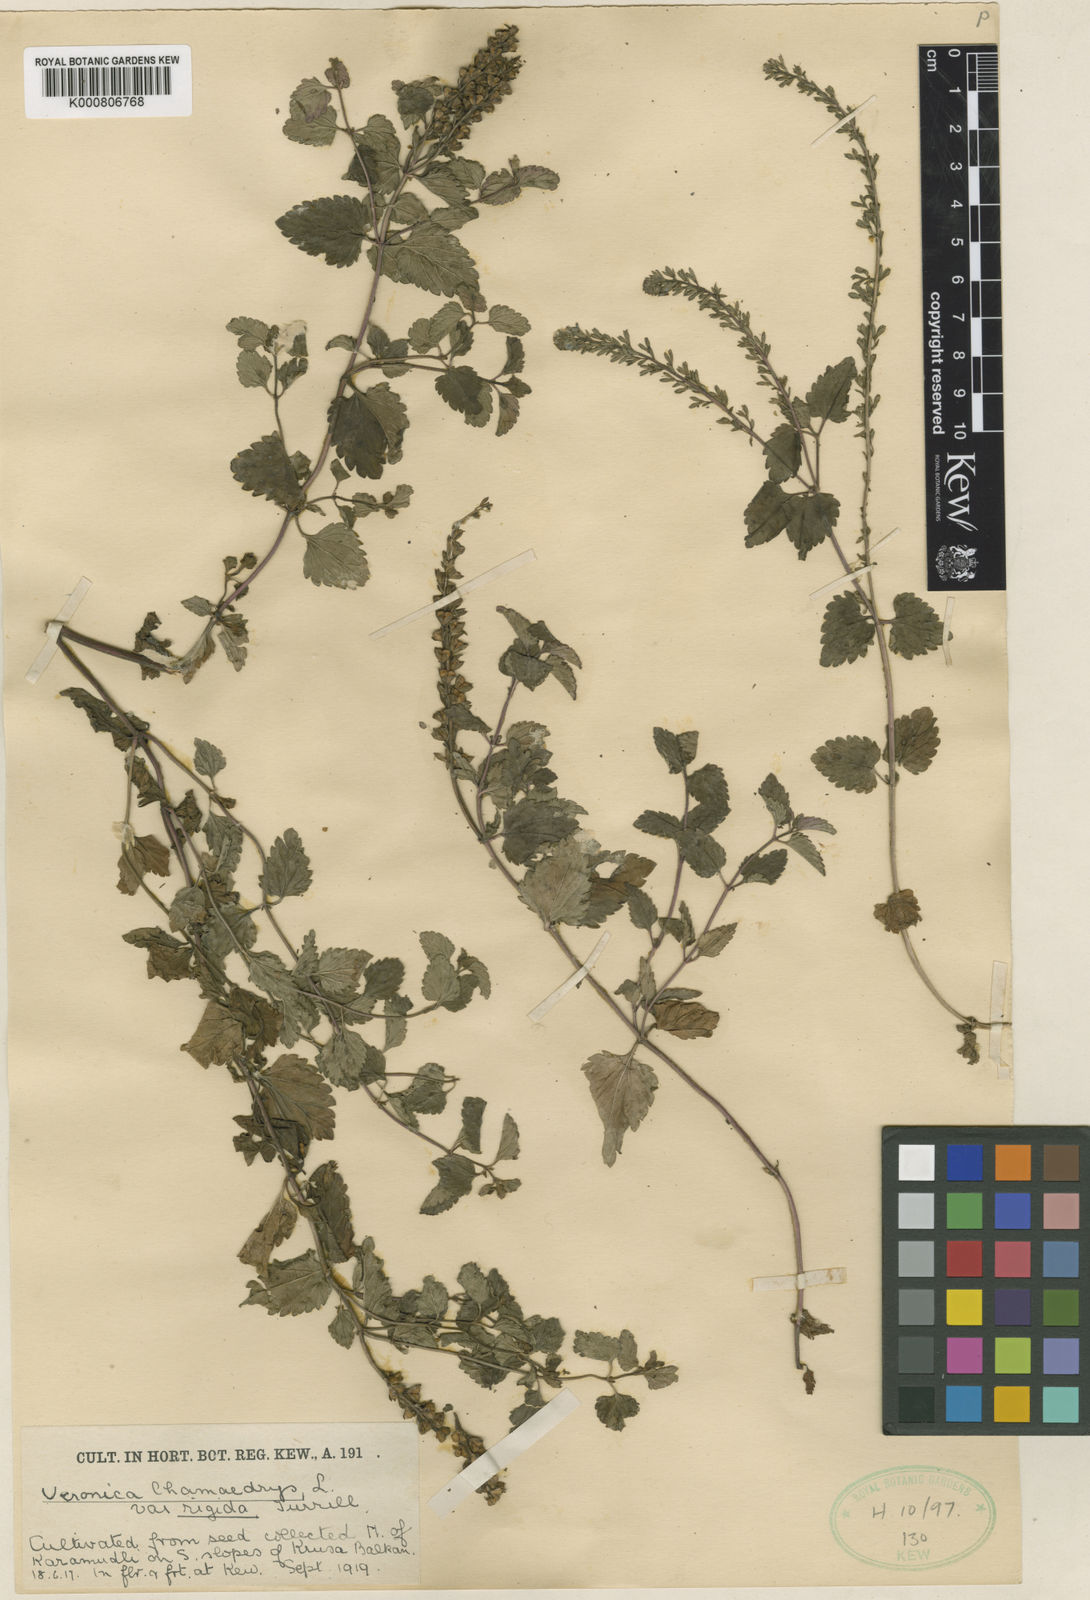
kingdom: Plantae
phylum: Tracheophyta
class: Magnoliopsida
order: Lamiales
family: Plantaginaceae
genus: Veronica
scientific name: Veronica chamaedrys
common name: Germander speedwell
